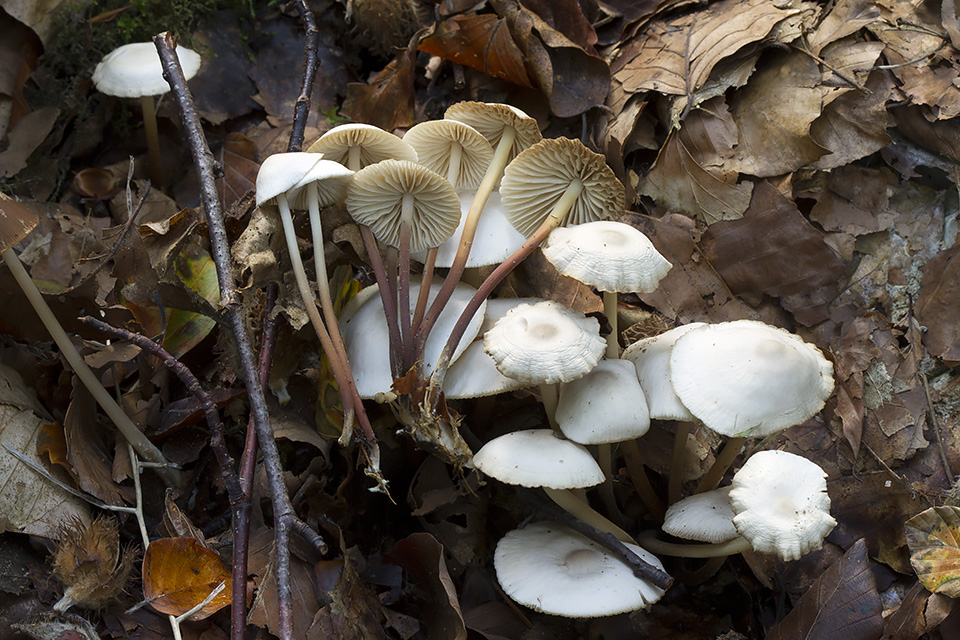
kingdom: Fungi
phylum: Basidiomycota
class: Agaricomycetes
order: Agaricales
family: Marasmiaceae
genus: Marasmius
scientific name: Marasmius wynneae
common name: hvælvet bruskhat
